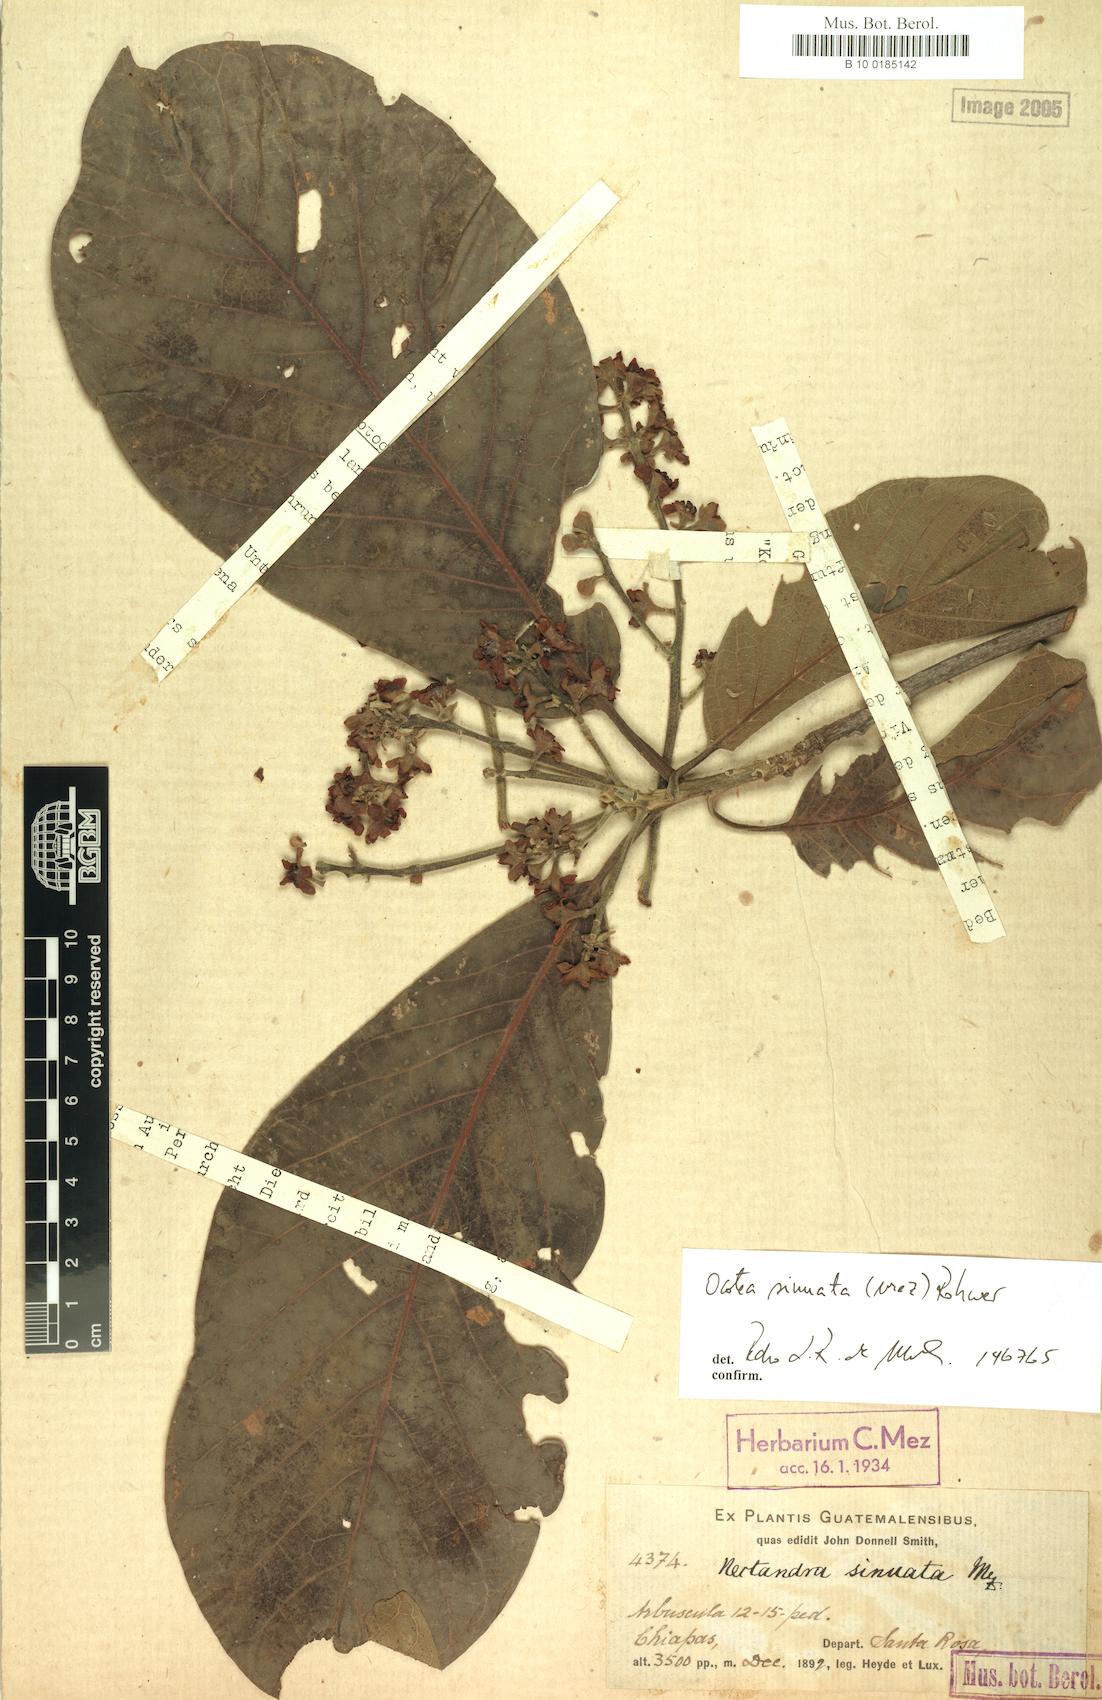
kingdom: Plantae
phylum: Tracheophyta
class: Magnoliopsida
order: Laurales
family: Lauraceae
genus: Ocotea
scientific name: Ocotea sinuata
